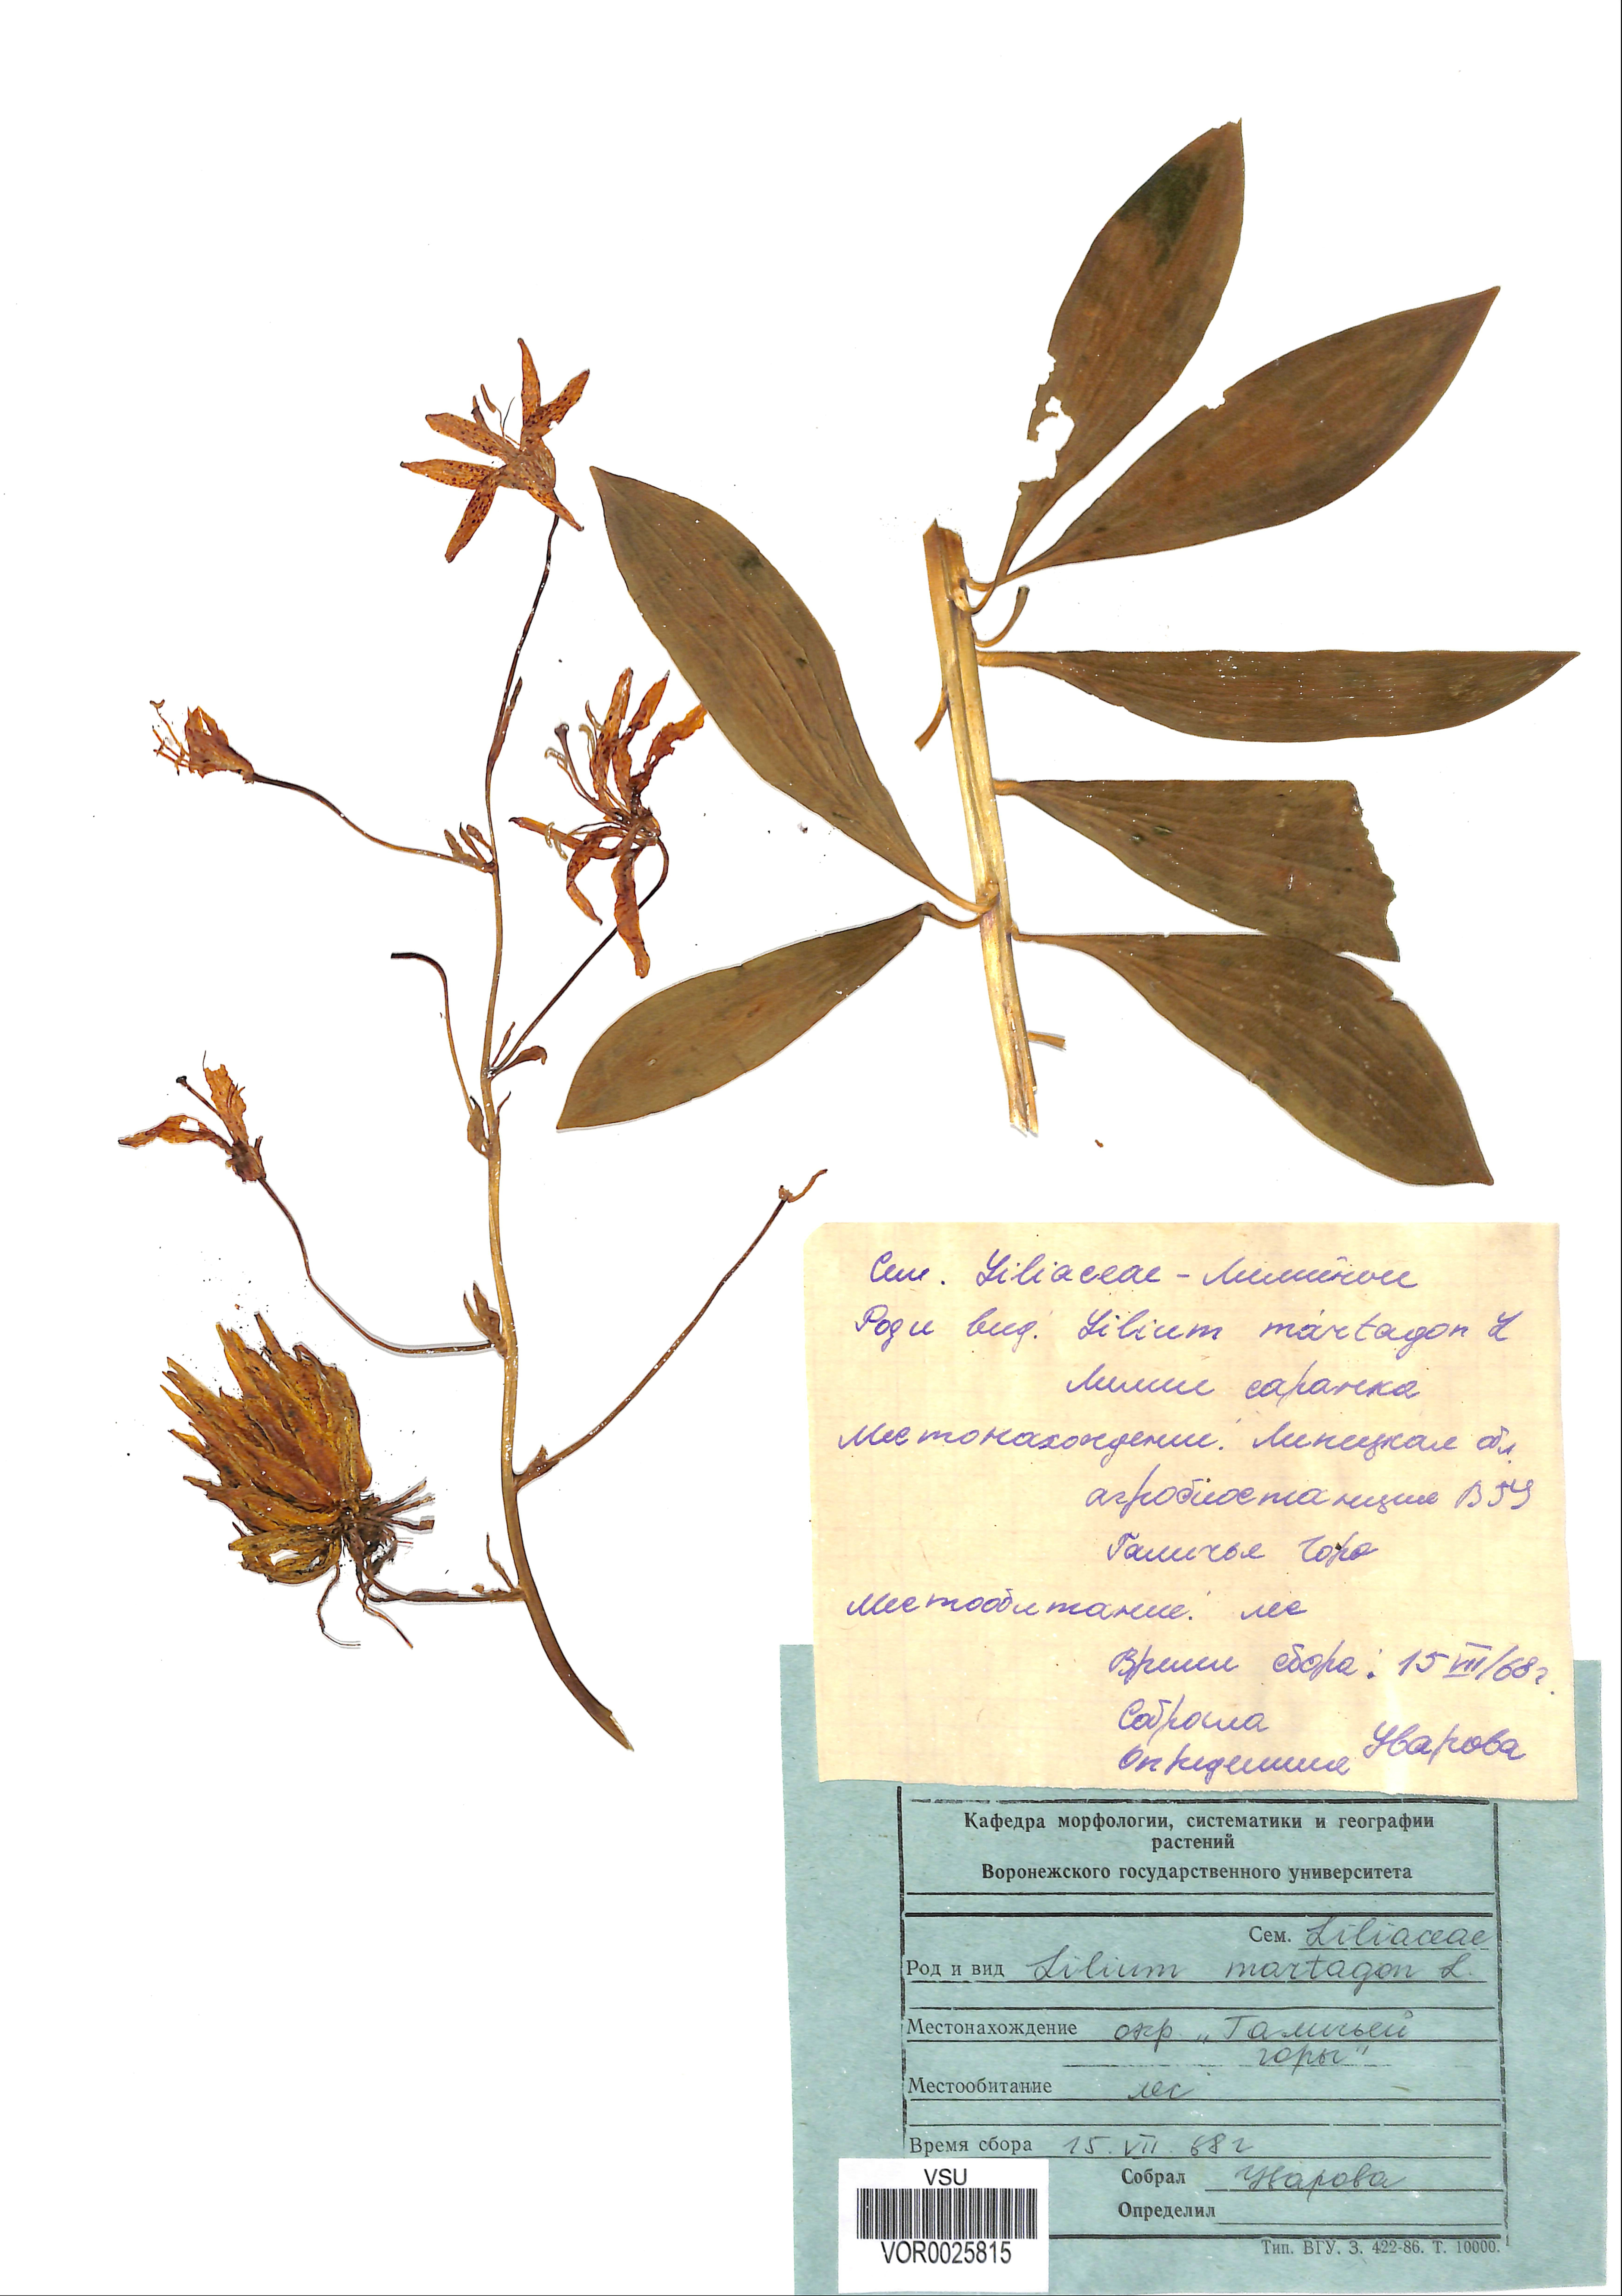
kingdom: Plantae
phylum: Tracheophyta
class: Liliopsida
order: Liliales
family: Liliaceae
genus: Lilium
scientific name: Lilium martagon
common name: Martagon lily
